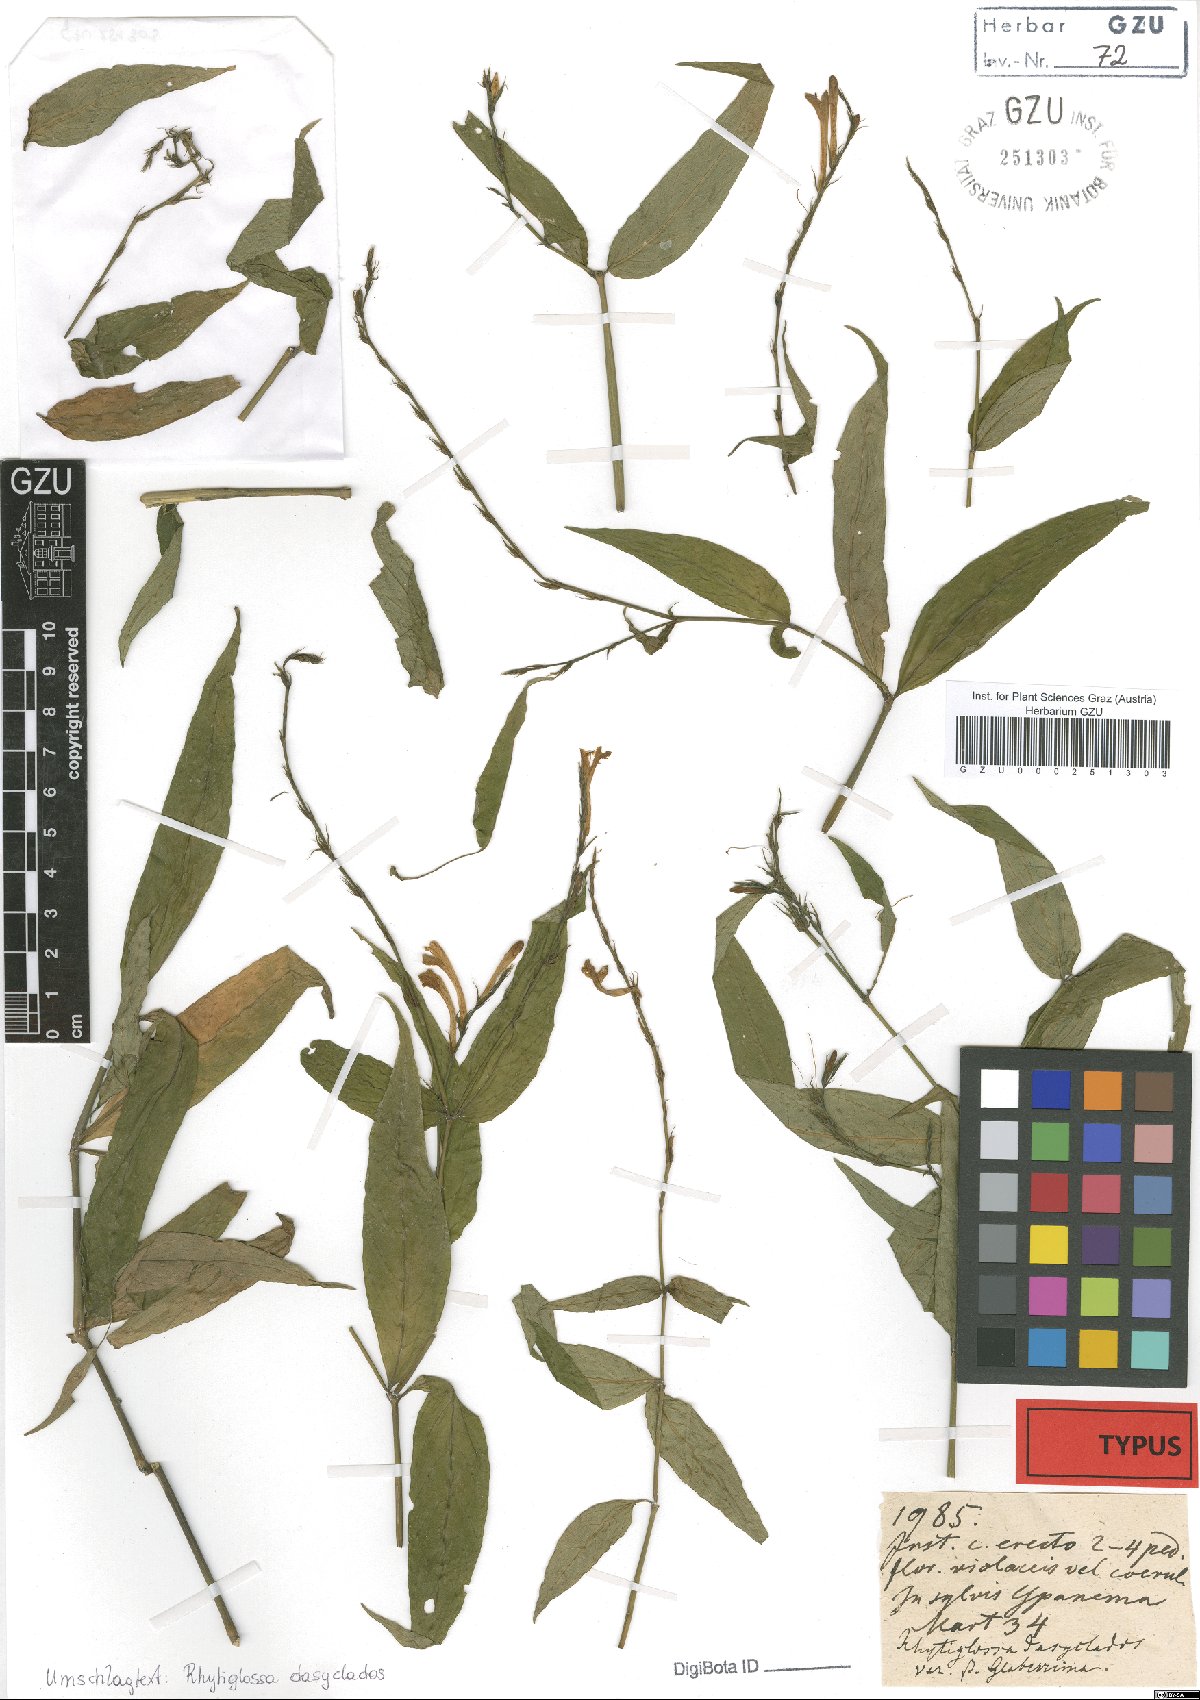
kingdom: Plantae
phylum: Tracheophyta
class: Magnoliopsida
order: Lamiales
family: Acanthaceae
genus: Dianthera
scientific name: Dianthera dasyclados
